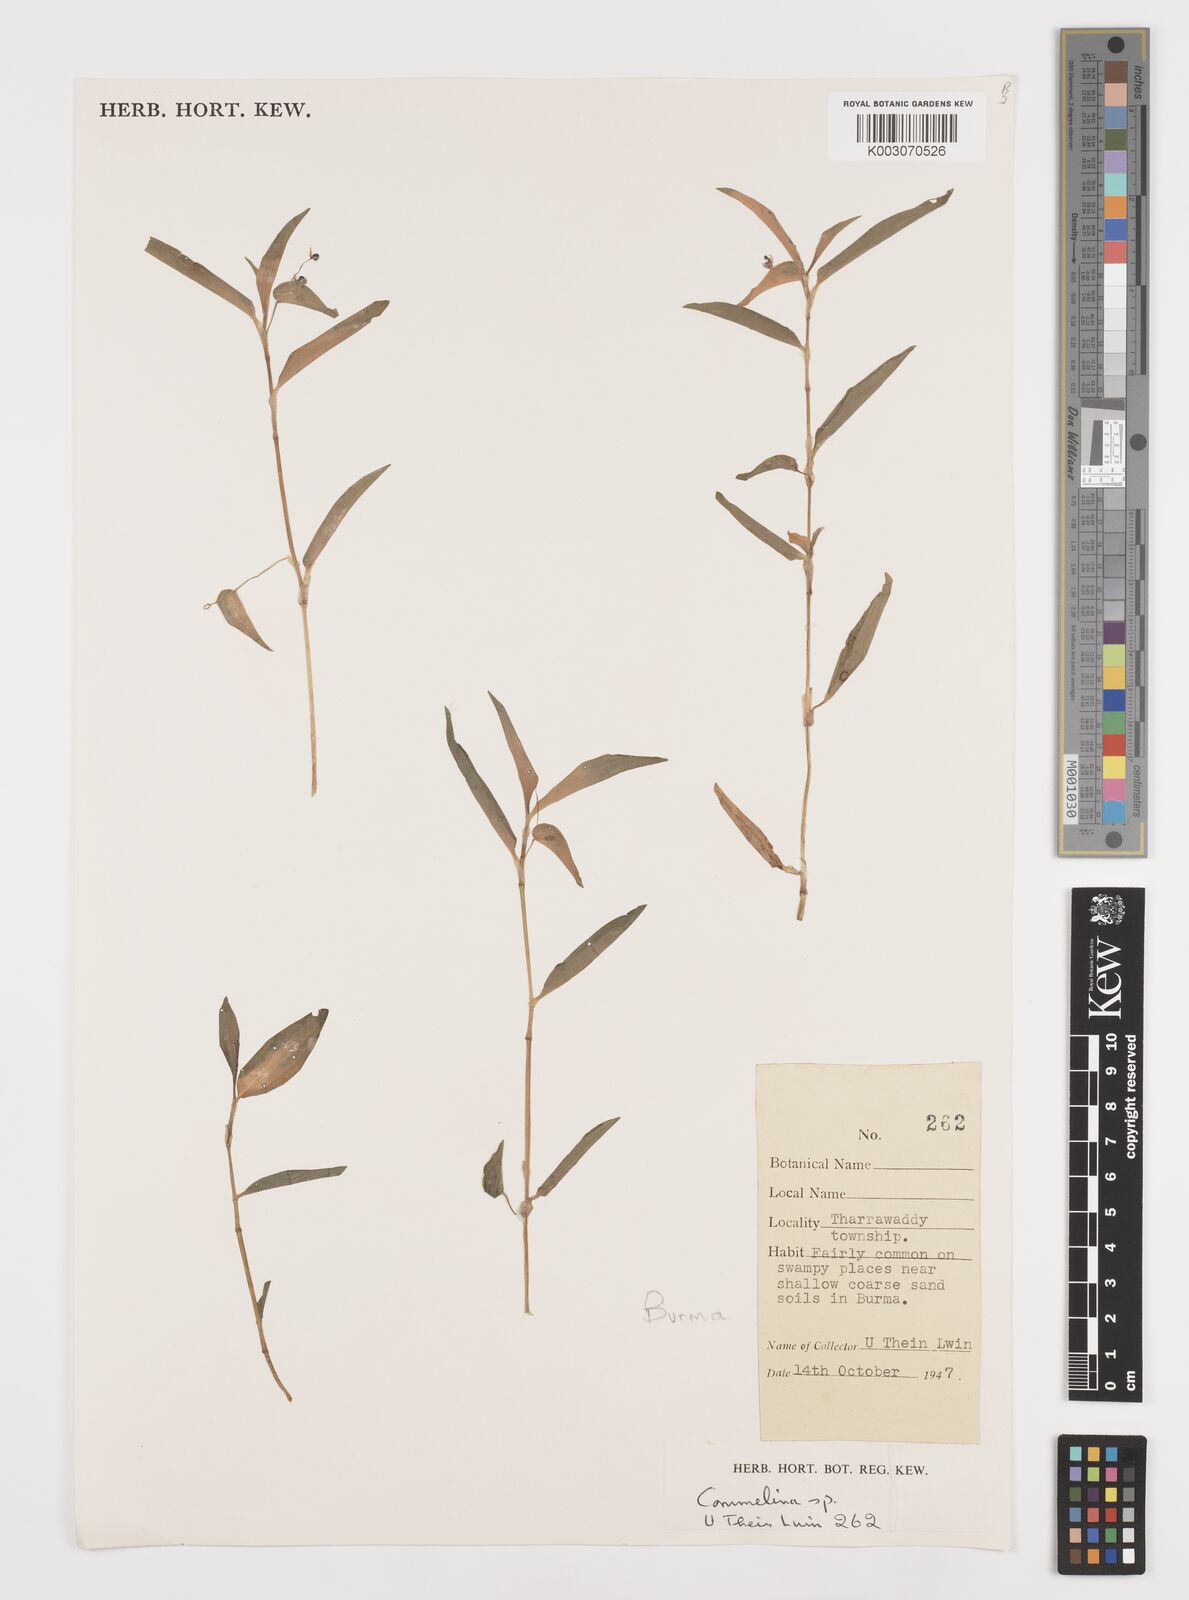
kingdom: Plantae
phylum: Tracheophyta
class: Liliopsida
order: Commelinales
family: Commelinaceae
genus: Commelina
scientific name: Commelina
